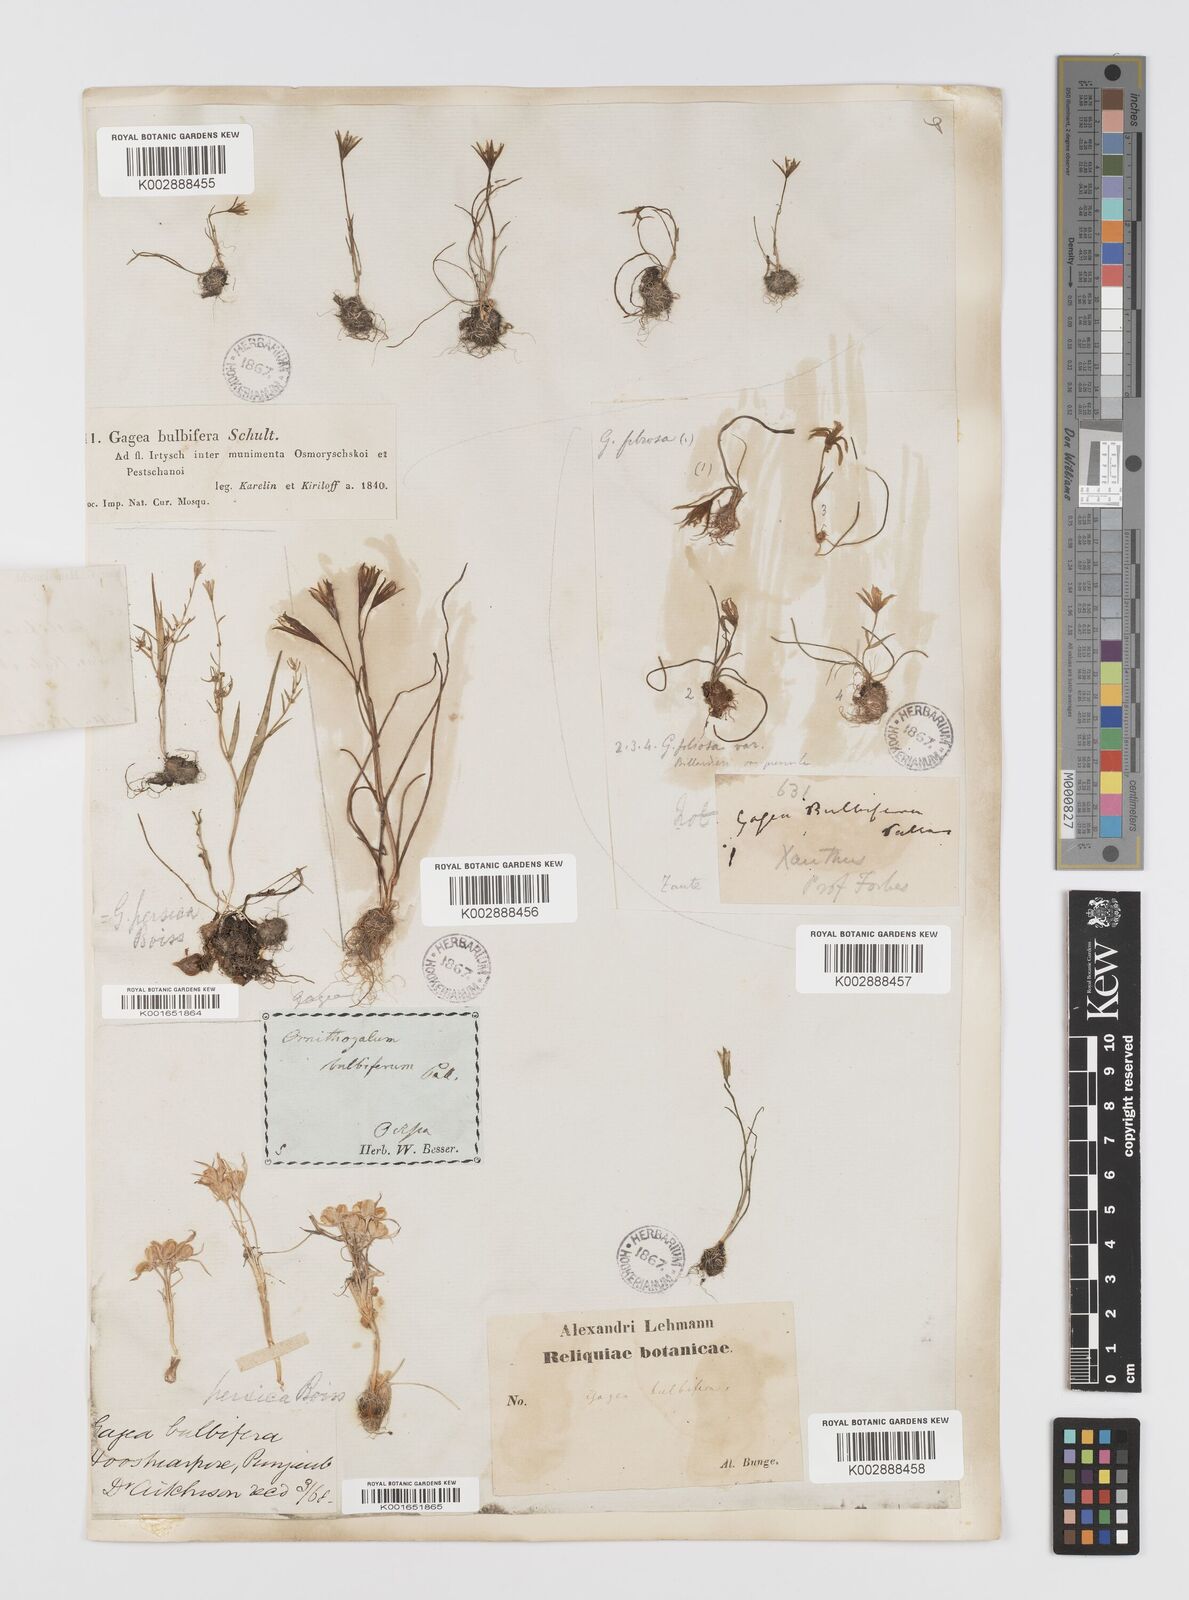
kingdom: Plantae
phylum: Tracheophyta
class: Liliopsida
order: Liliales
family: Liliaceae
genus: Gagea
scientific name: Gagea bulbifera
